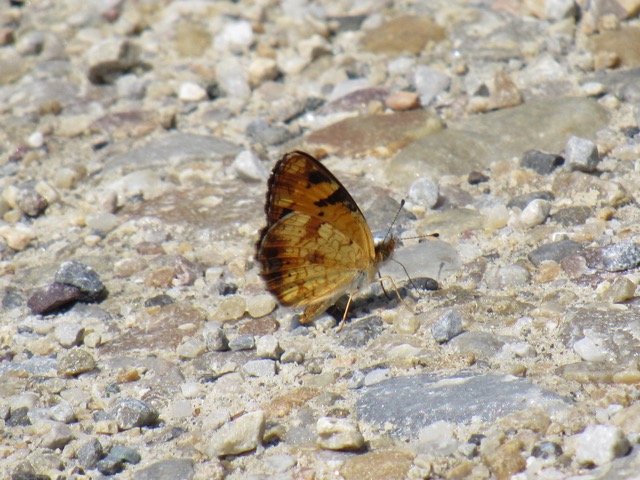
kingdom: Animalia
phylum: Arthropoda
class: Insecta
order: Lepidoptera
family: Nymphalidae
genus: Phyciodes
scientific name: Phyciodes tharos
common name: Pearl Crescent
